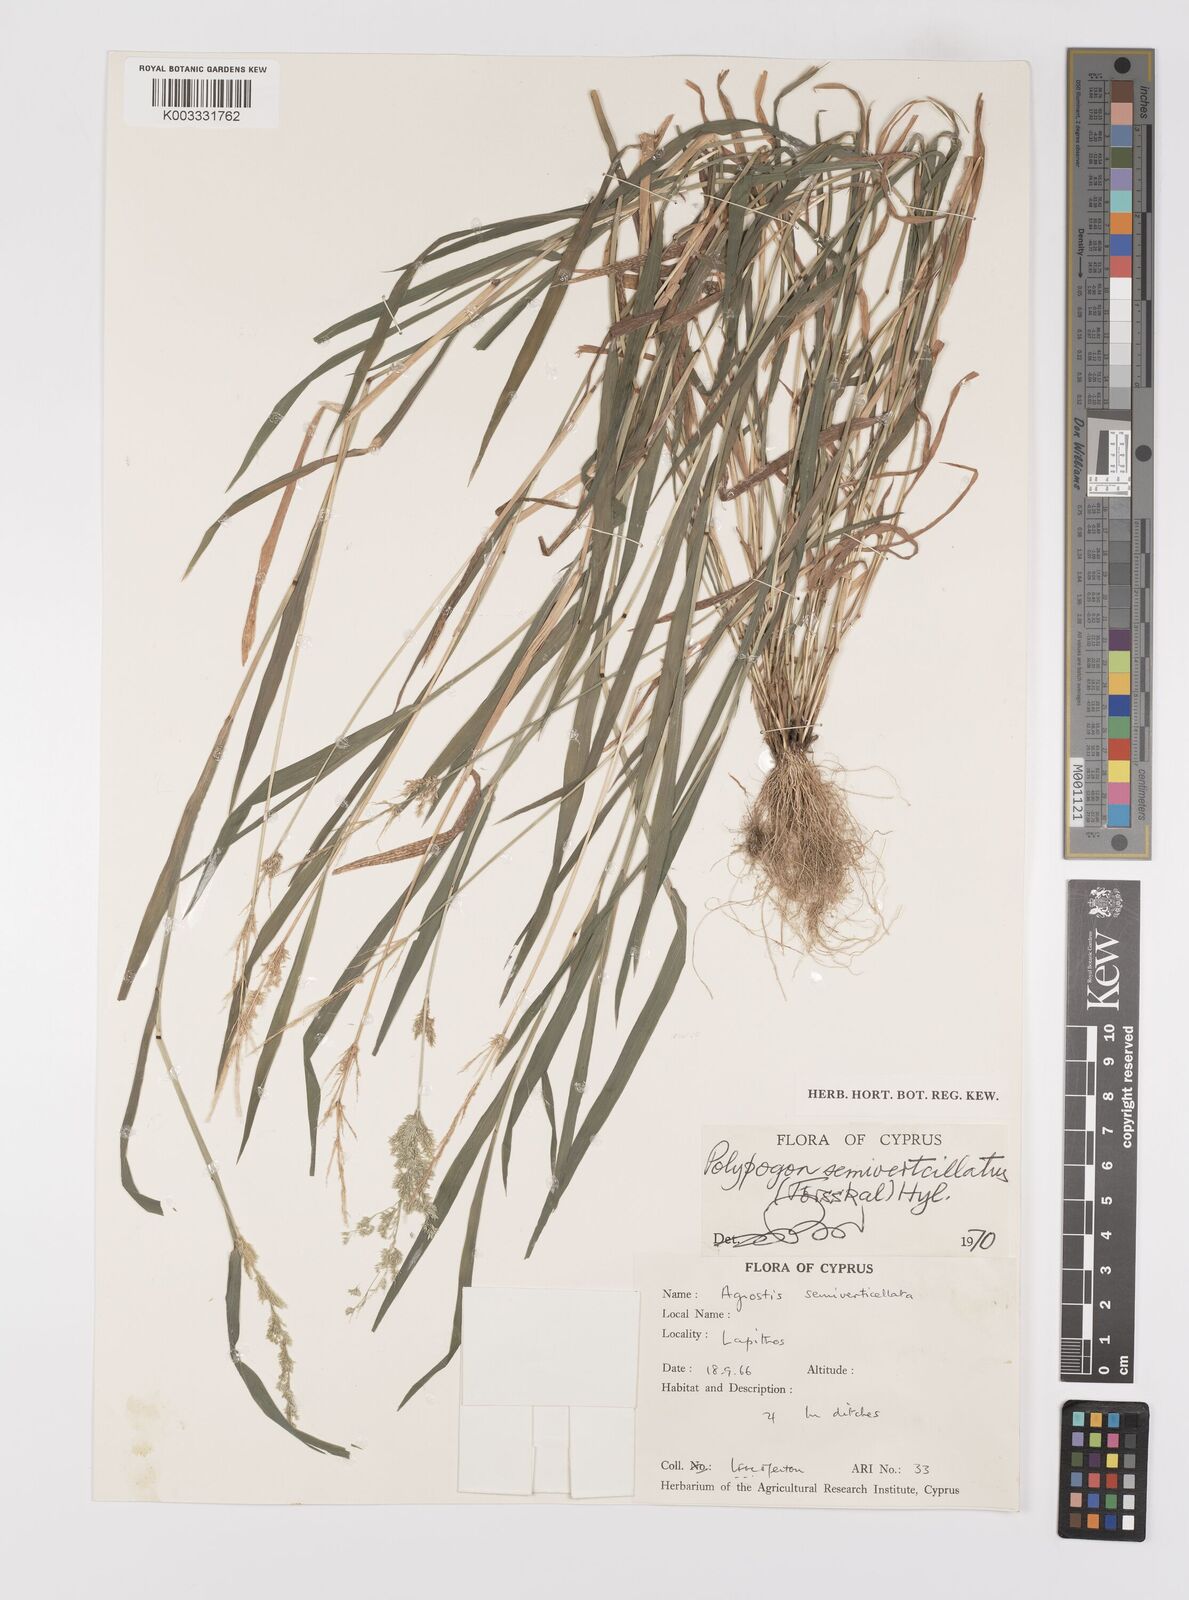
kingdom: Plantae
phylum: Tracheophyta
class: Liliopsida
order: Poales
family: Poaceae
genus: Polypogon
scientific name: Polypogon viridis
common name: Water bent
